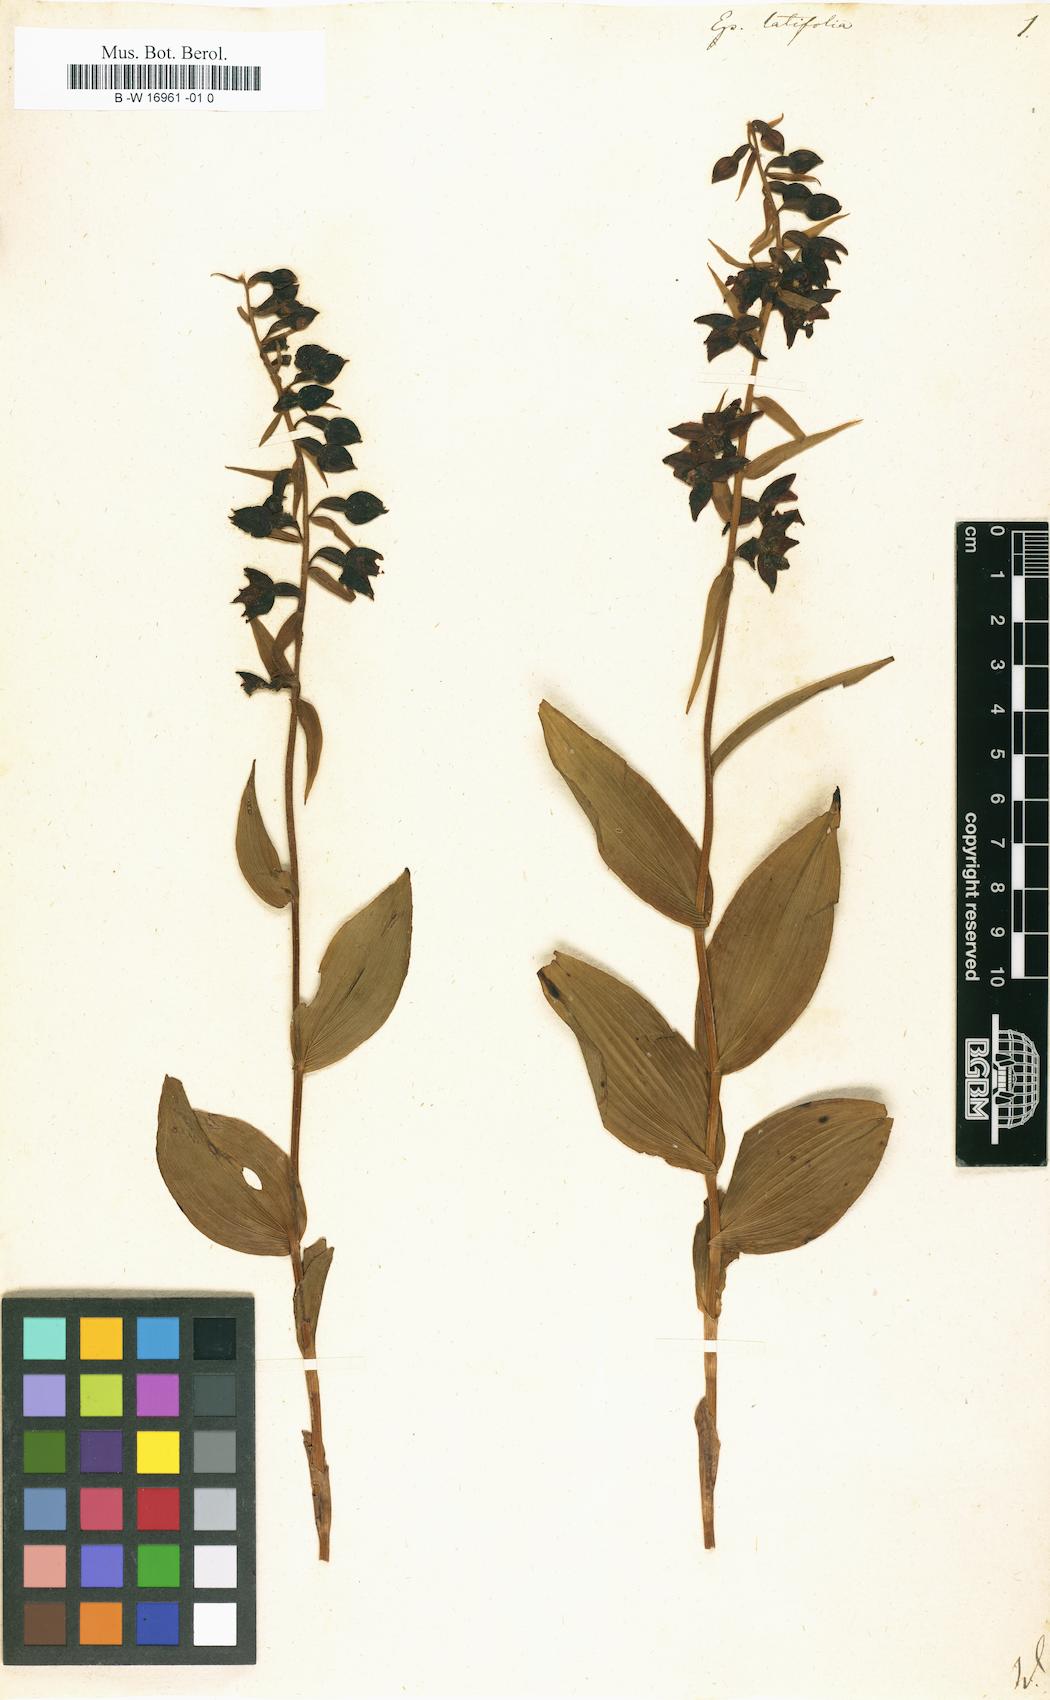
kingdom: Plantae
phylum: Tracheophyta
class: Liliopsida
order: Asparagales
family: Orchidaceae
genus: Epipactis
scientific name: Epipactis
